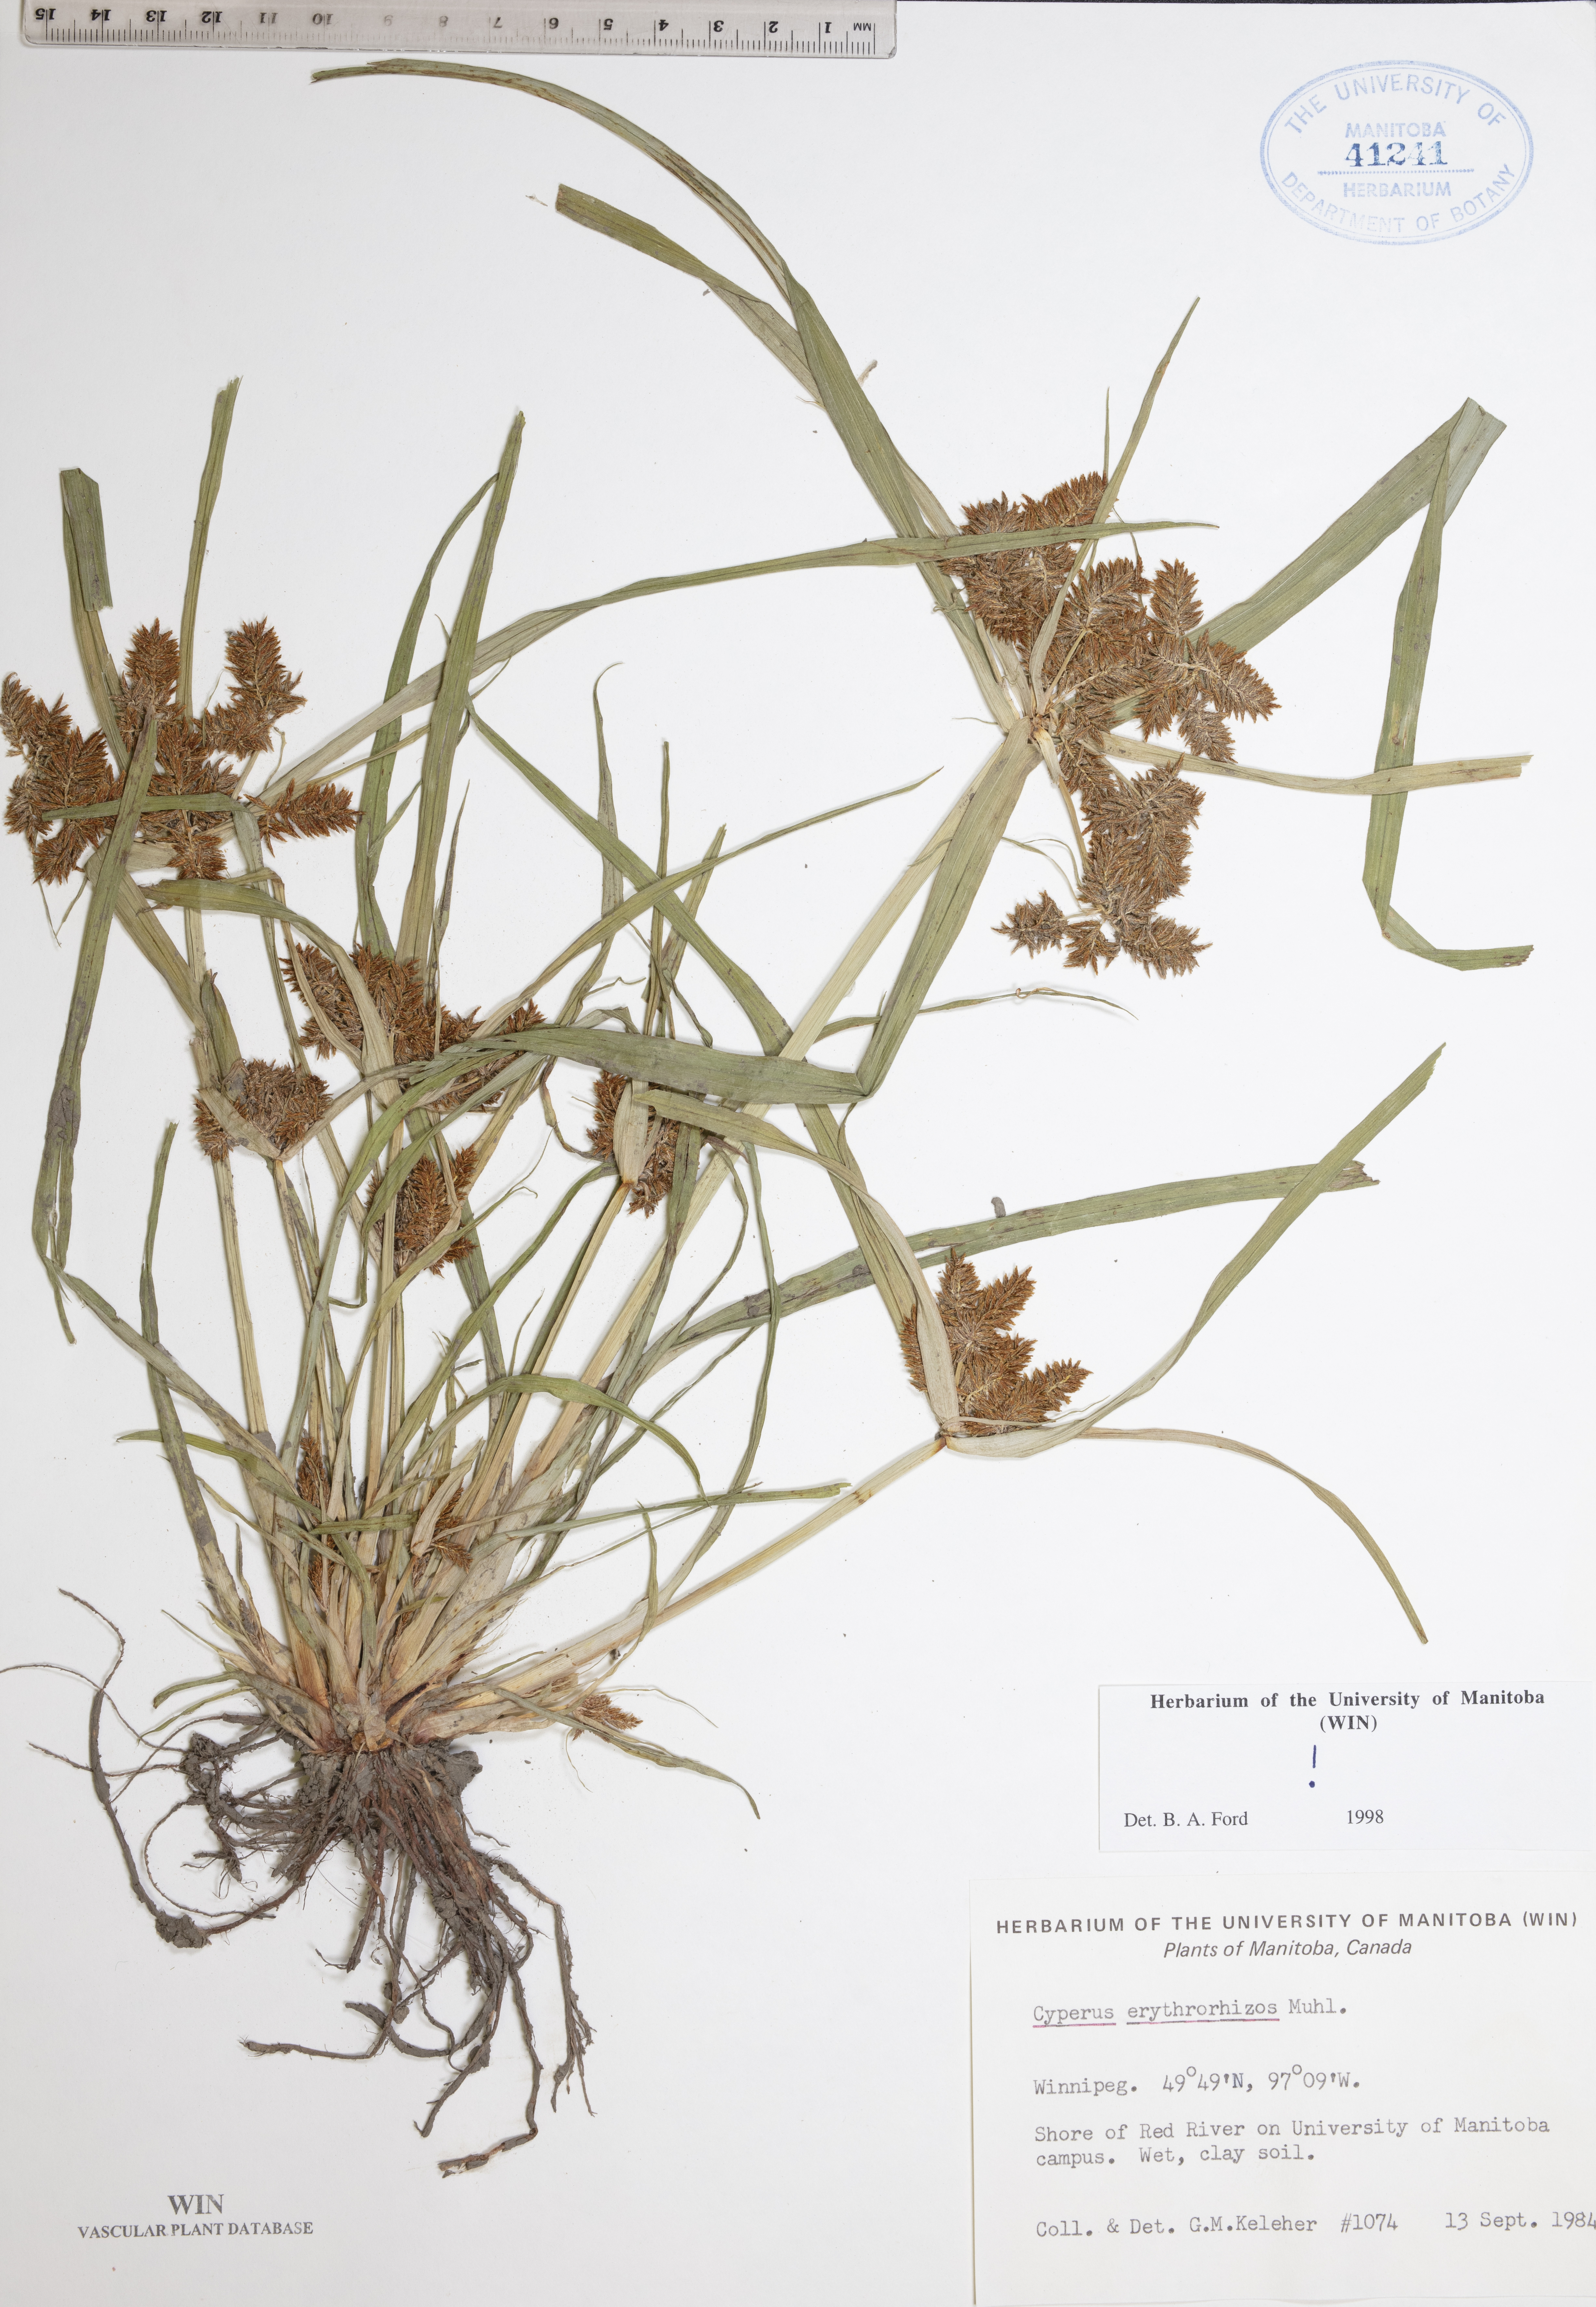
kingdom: Plantae
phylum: Tracheophyta
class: Liliopsida
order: Poales
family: Cyperaceae
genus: Cyperus
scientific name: Cyperus erythrorhizos
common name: Red-root flat sedge
